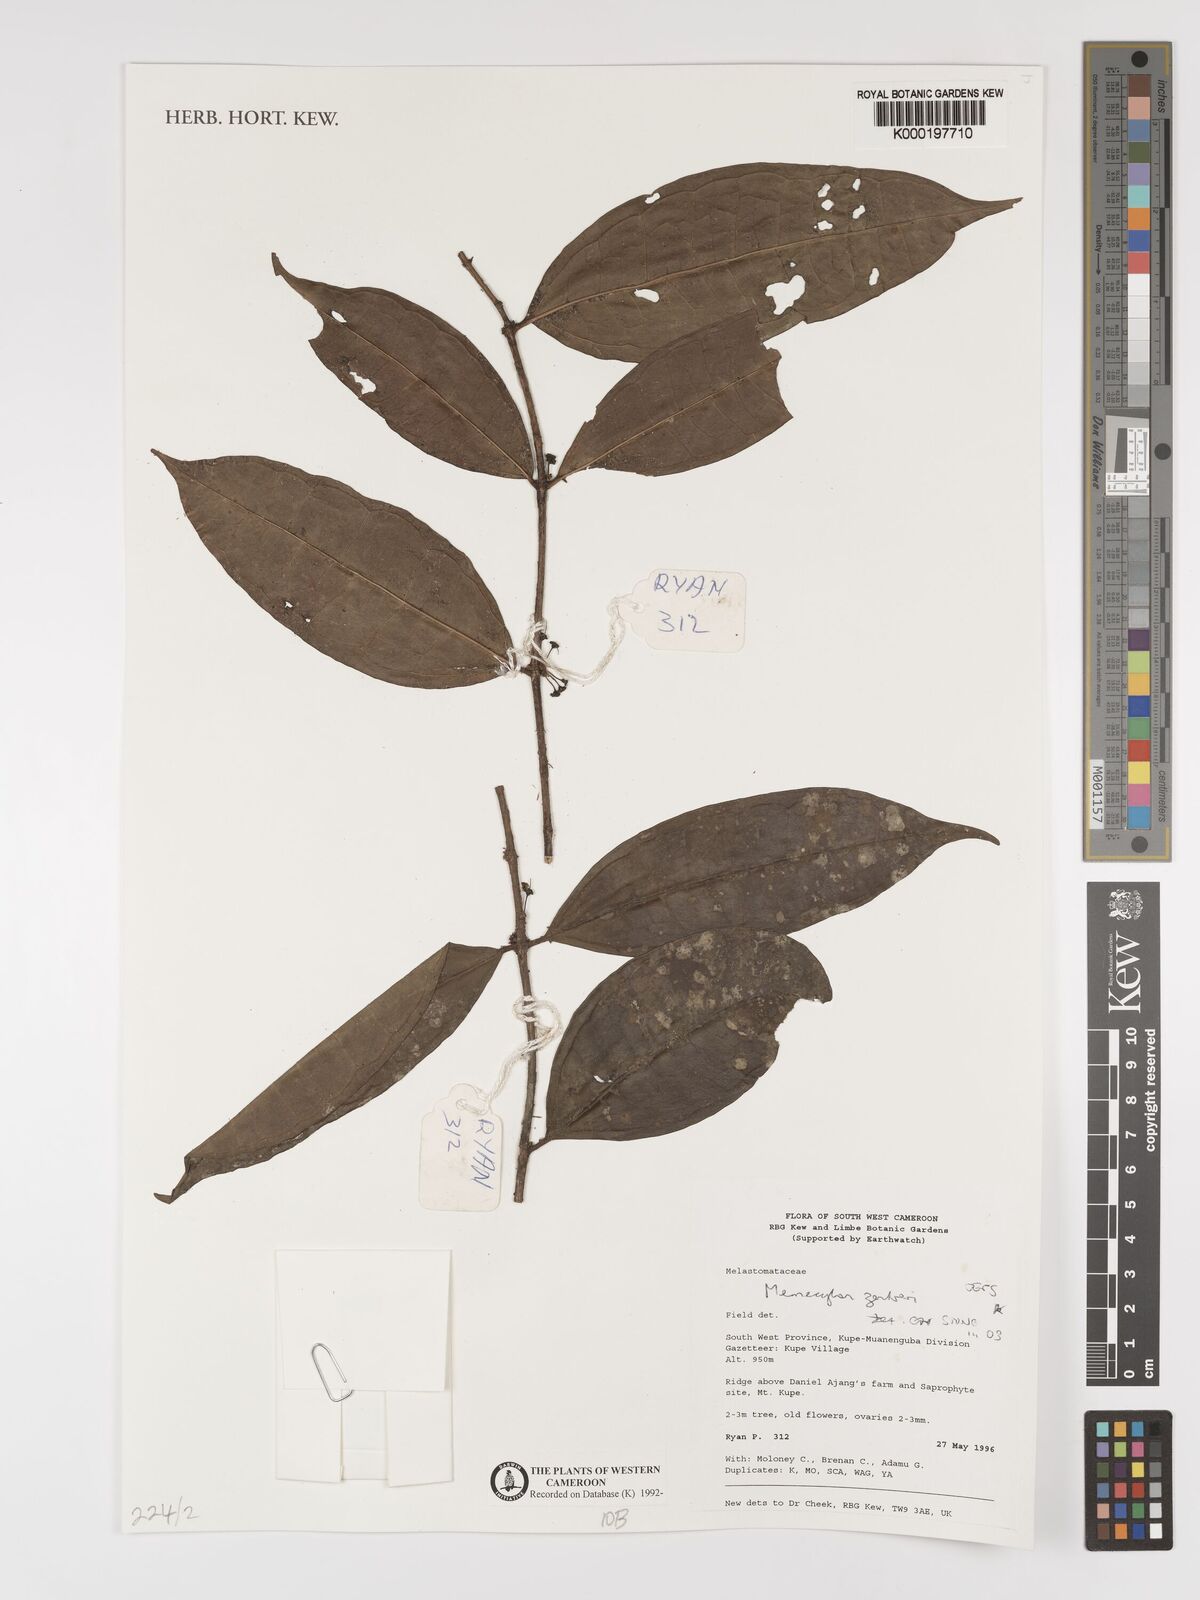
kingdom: Plantae
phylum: Tracheophyta
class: Magnoliopsida
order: Myrtales
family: Melastomataceae
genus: Memecylon
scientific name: Memecylon zenkeri
